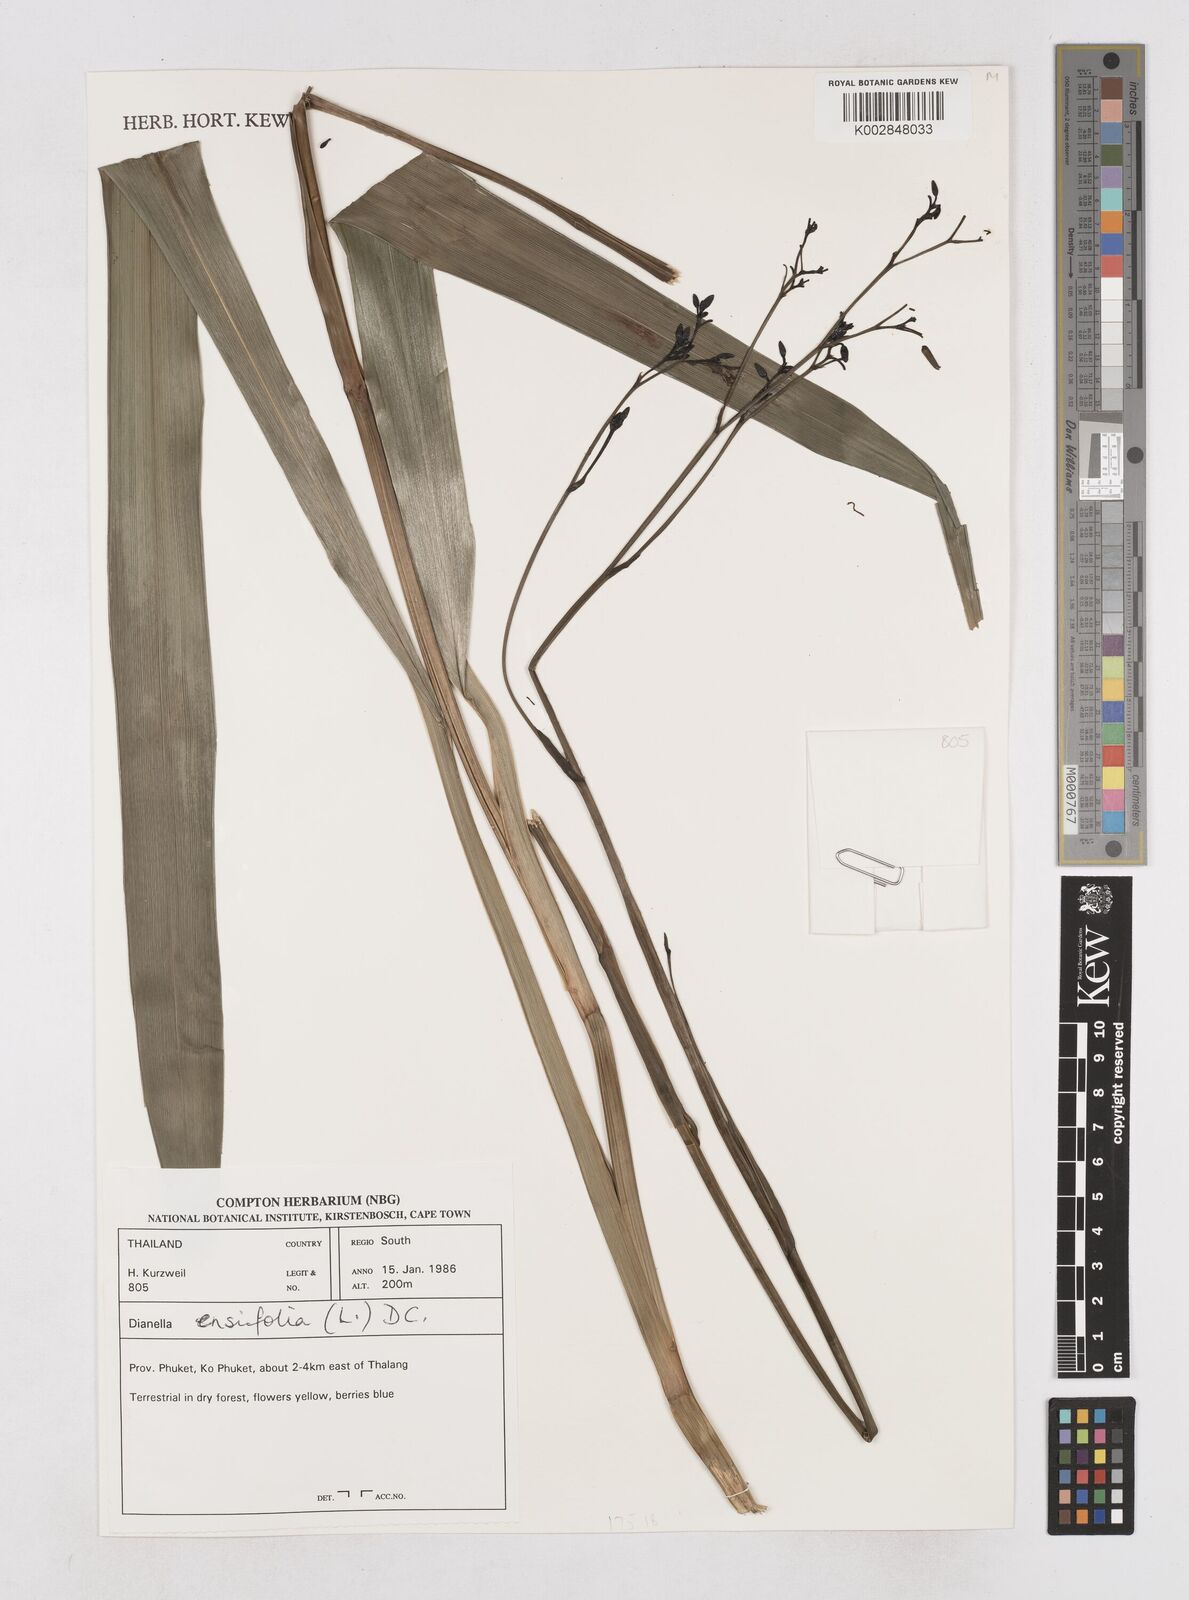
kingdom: Plantae
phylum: Tracheophyta
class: Liliopsida
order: Asparagales
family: Asphodelaceae
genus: Dianella
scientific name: Dianella ensifolia
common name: New zealand lilyplant
